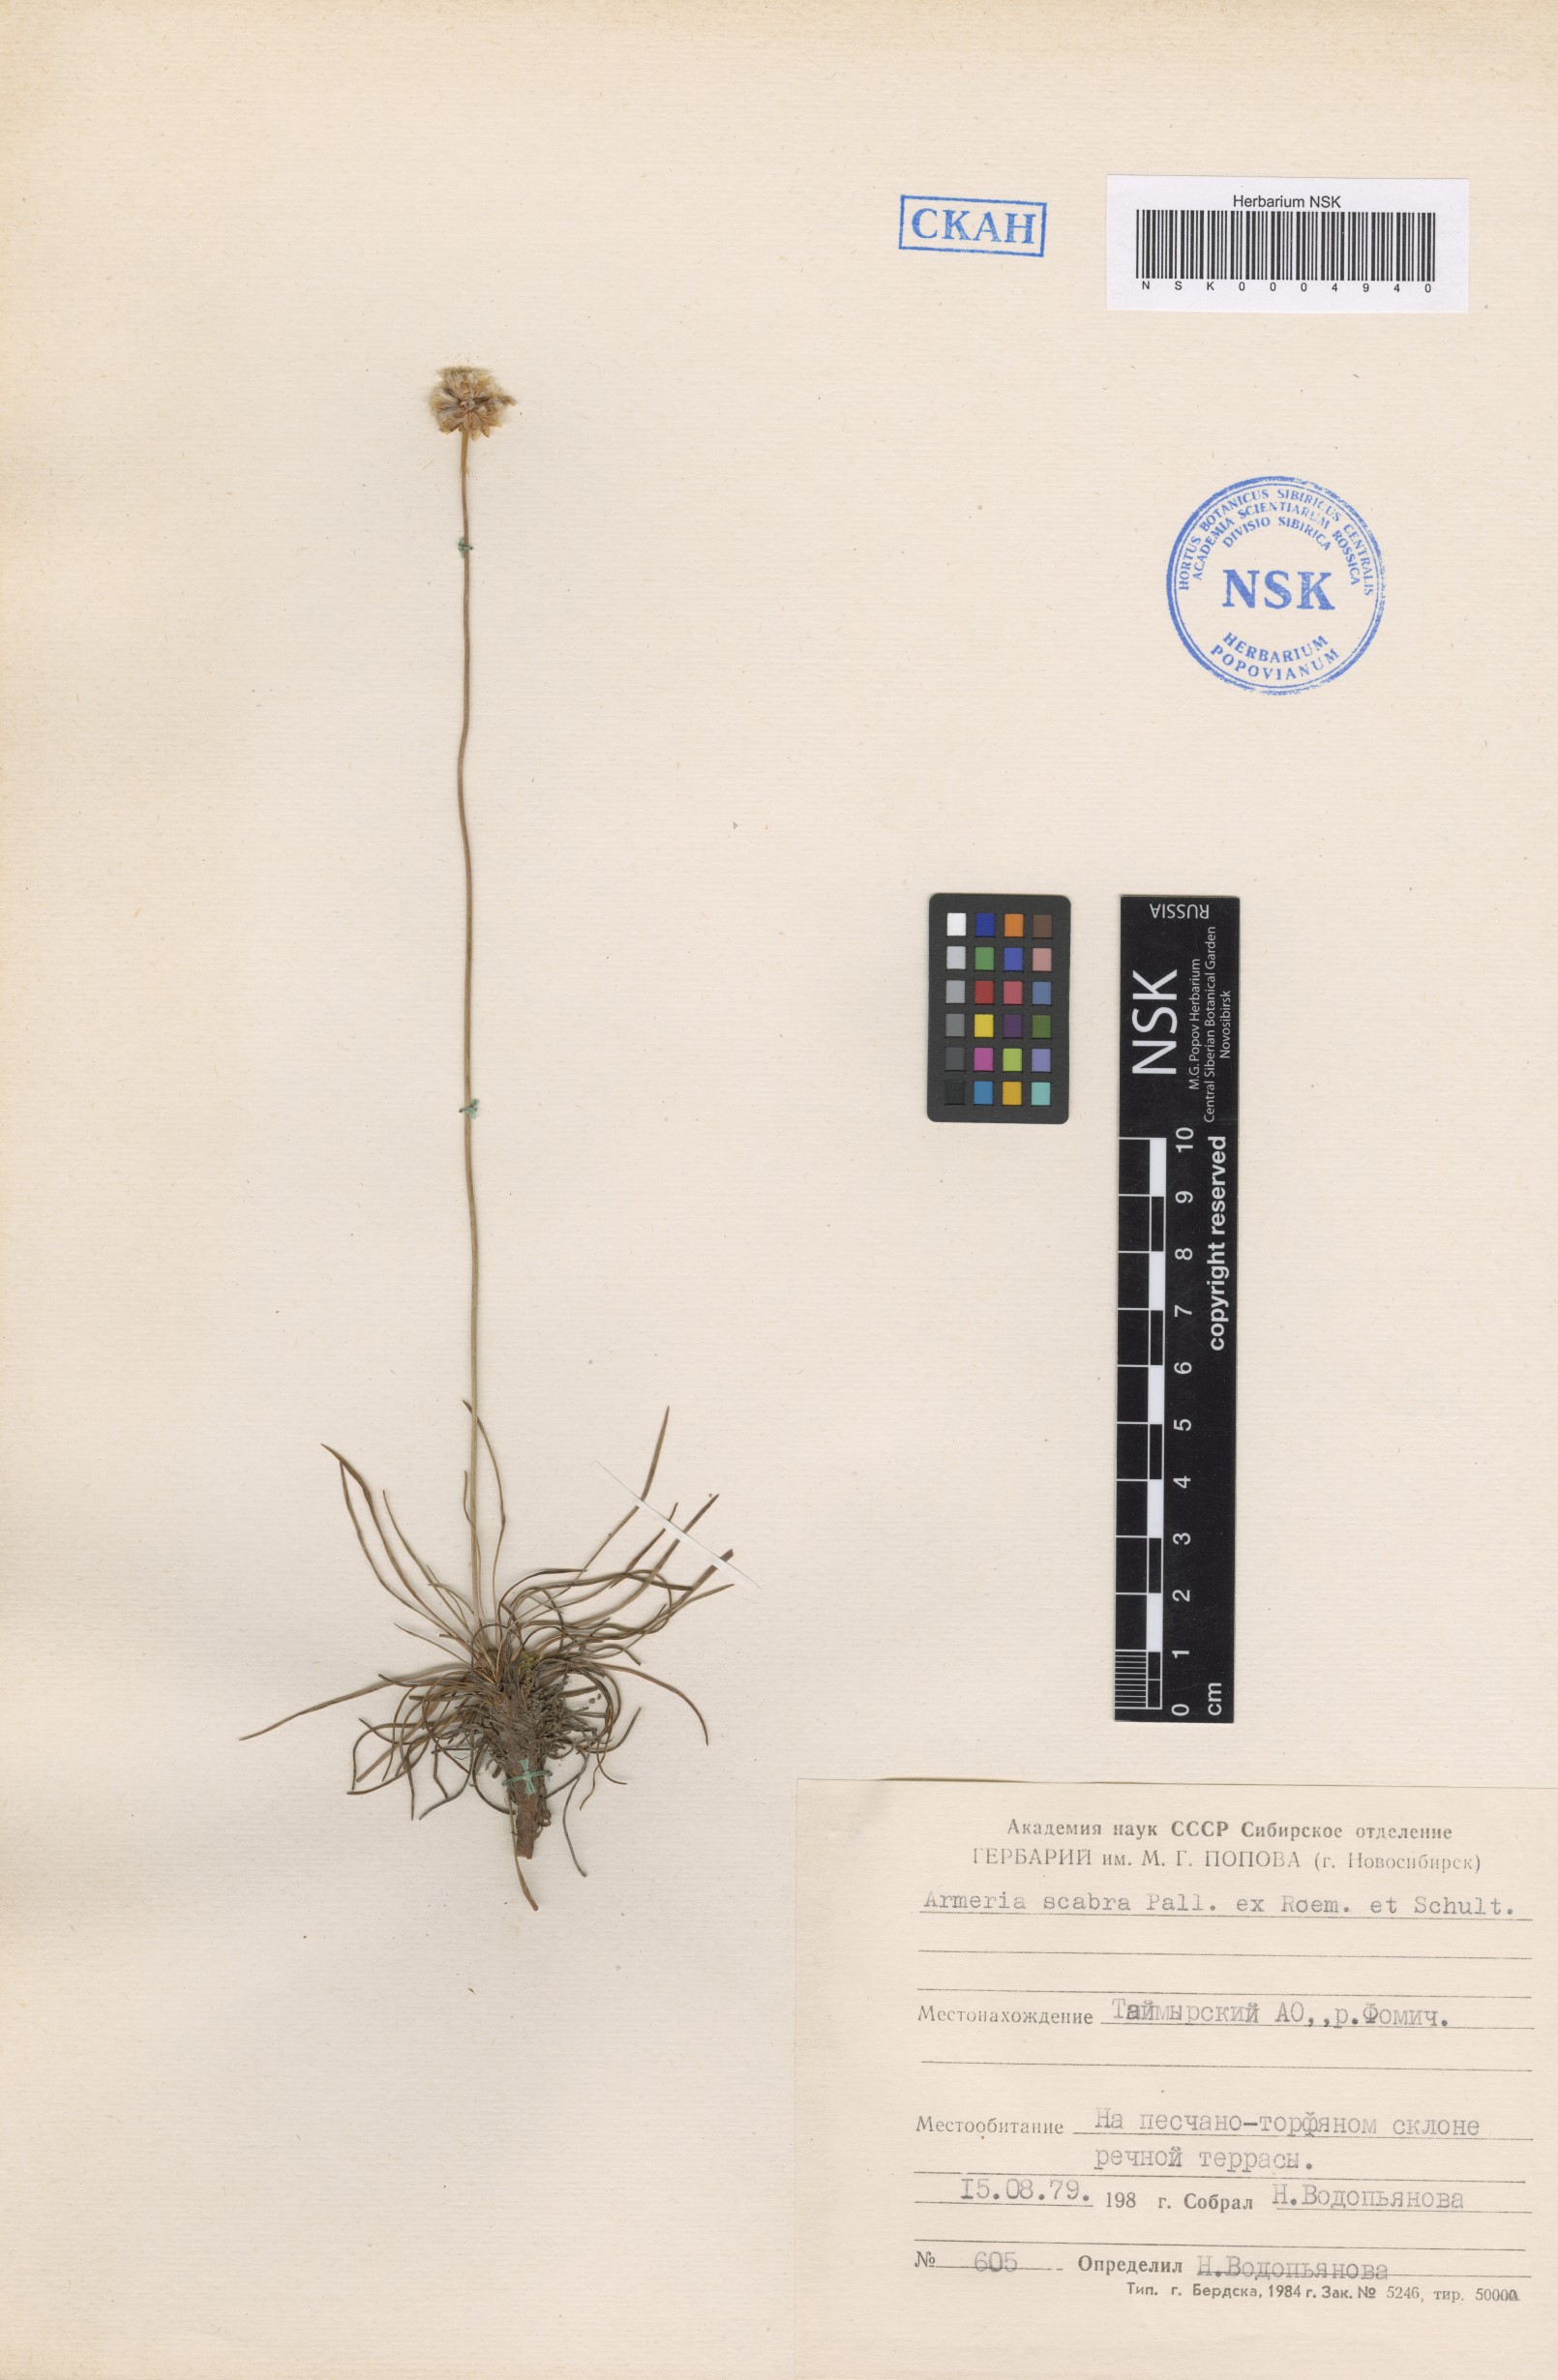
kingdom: Plantae
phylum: Tracheophyta
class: Magnoliopsida
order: Caryophyllales
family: Plumbaginaceae
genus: Armeria
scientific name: Armeria maritima
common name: Thrift
